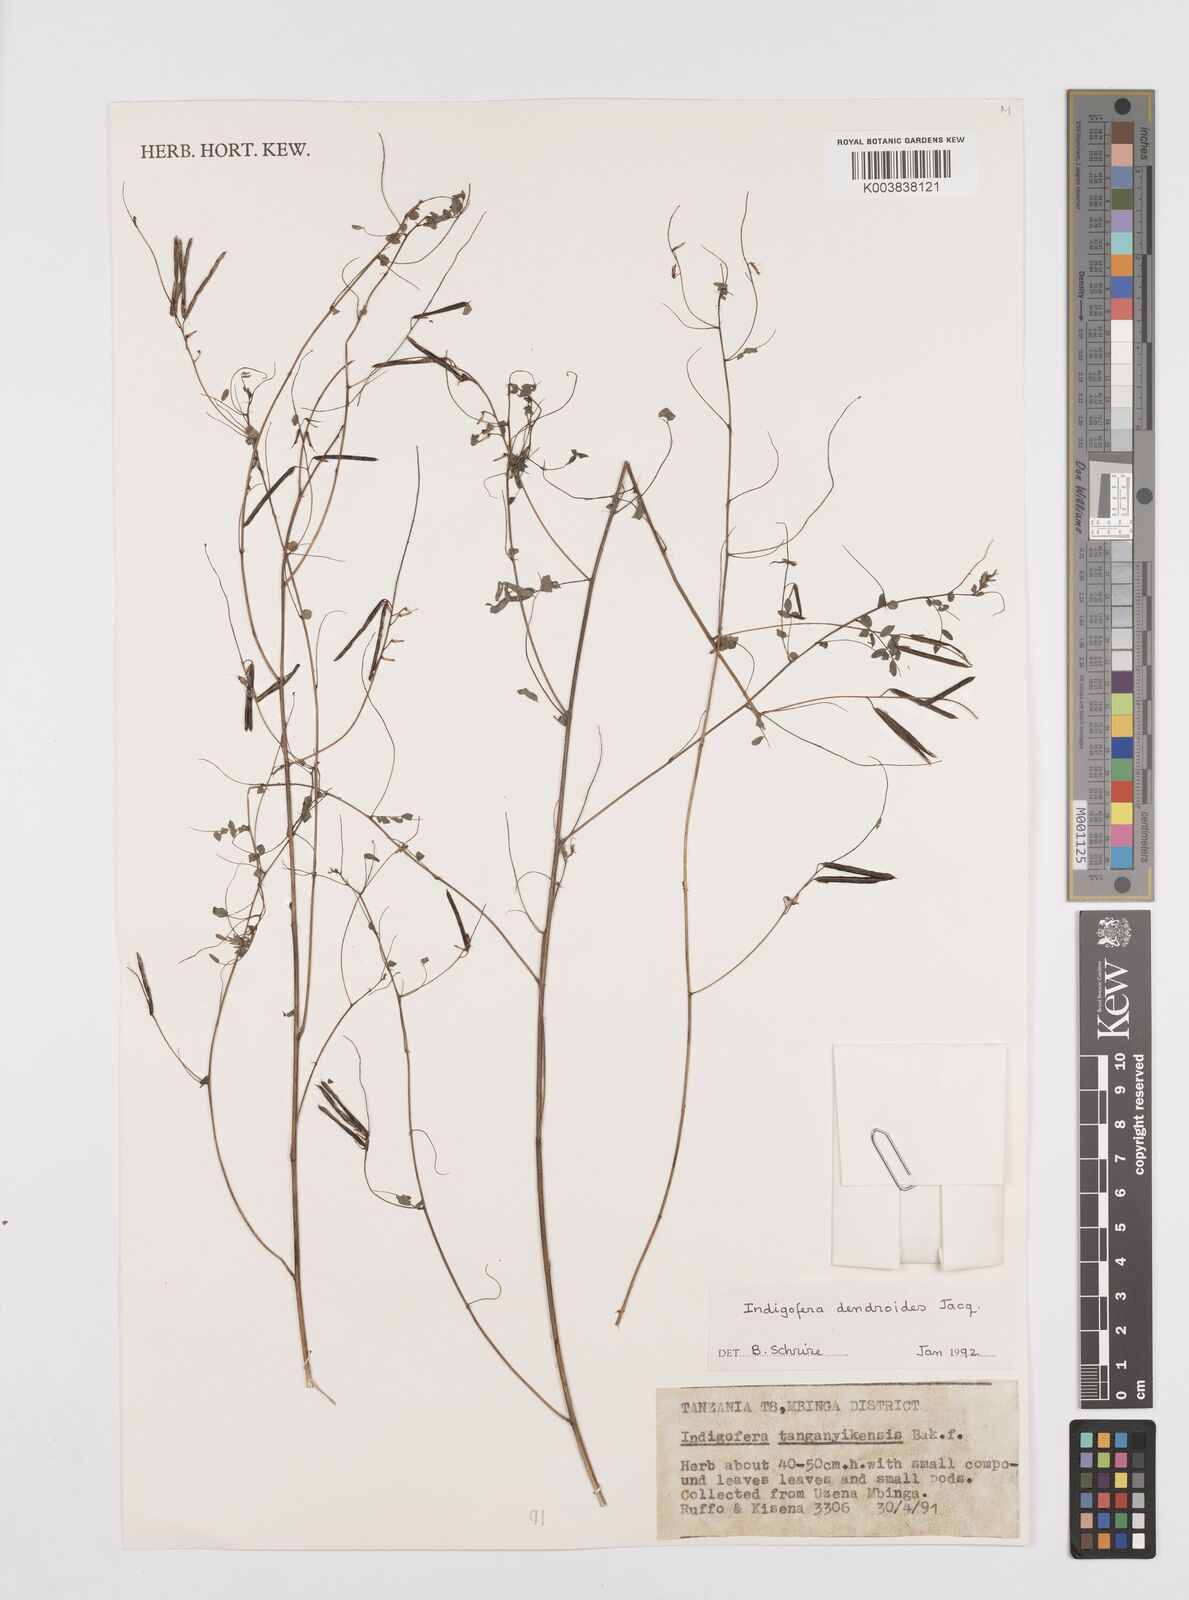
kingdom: Plantae
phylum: Tracheophyta
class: Magnoliopsida
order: Fabales
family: Fabaceae
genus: Indigofera
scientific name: Indigofera dendroides
